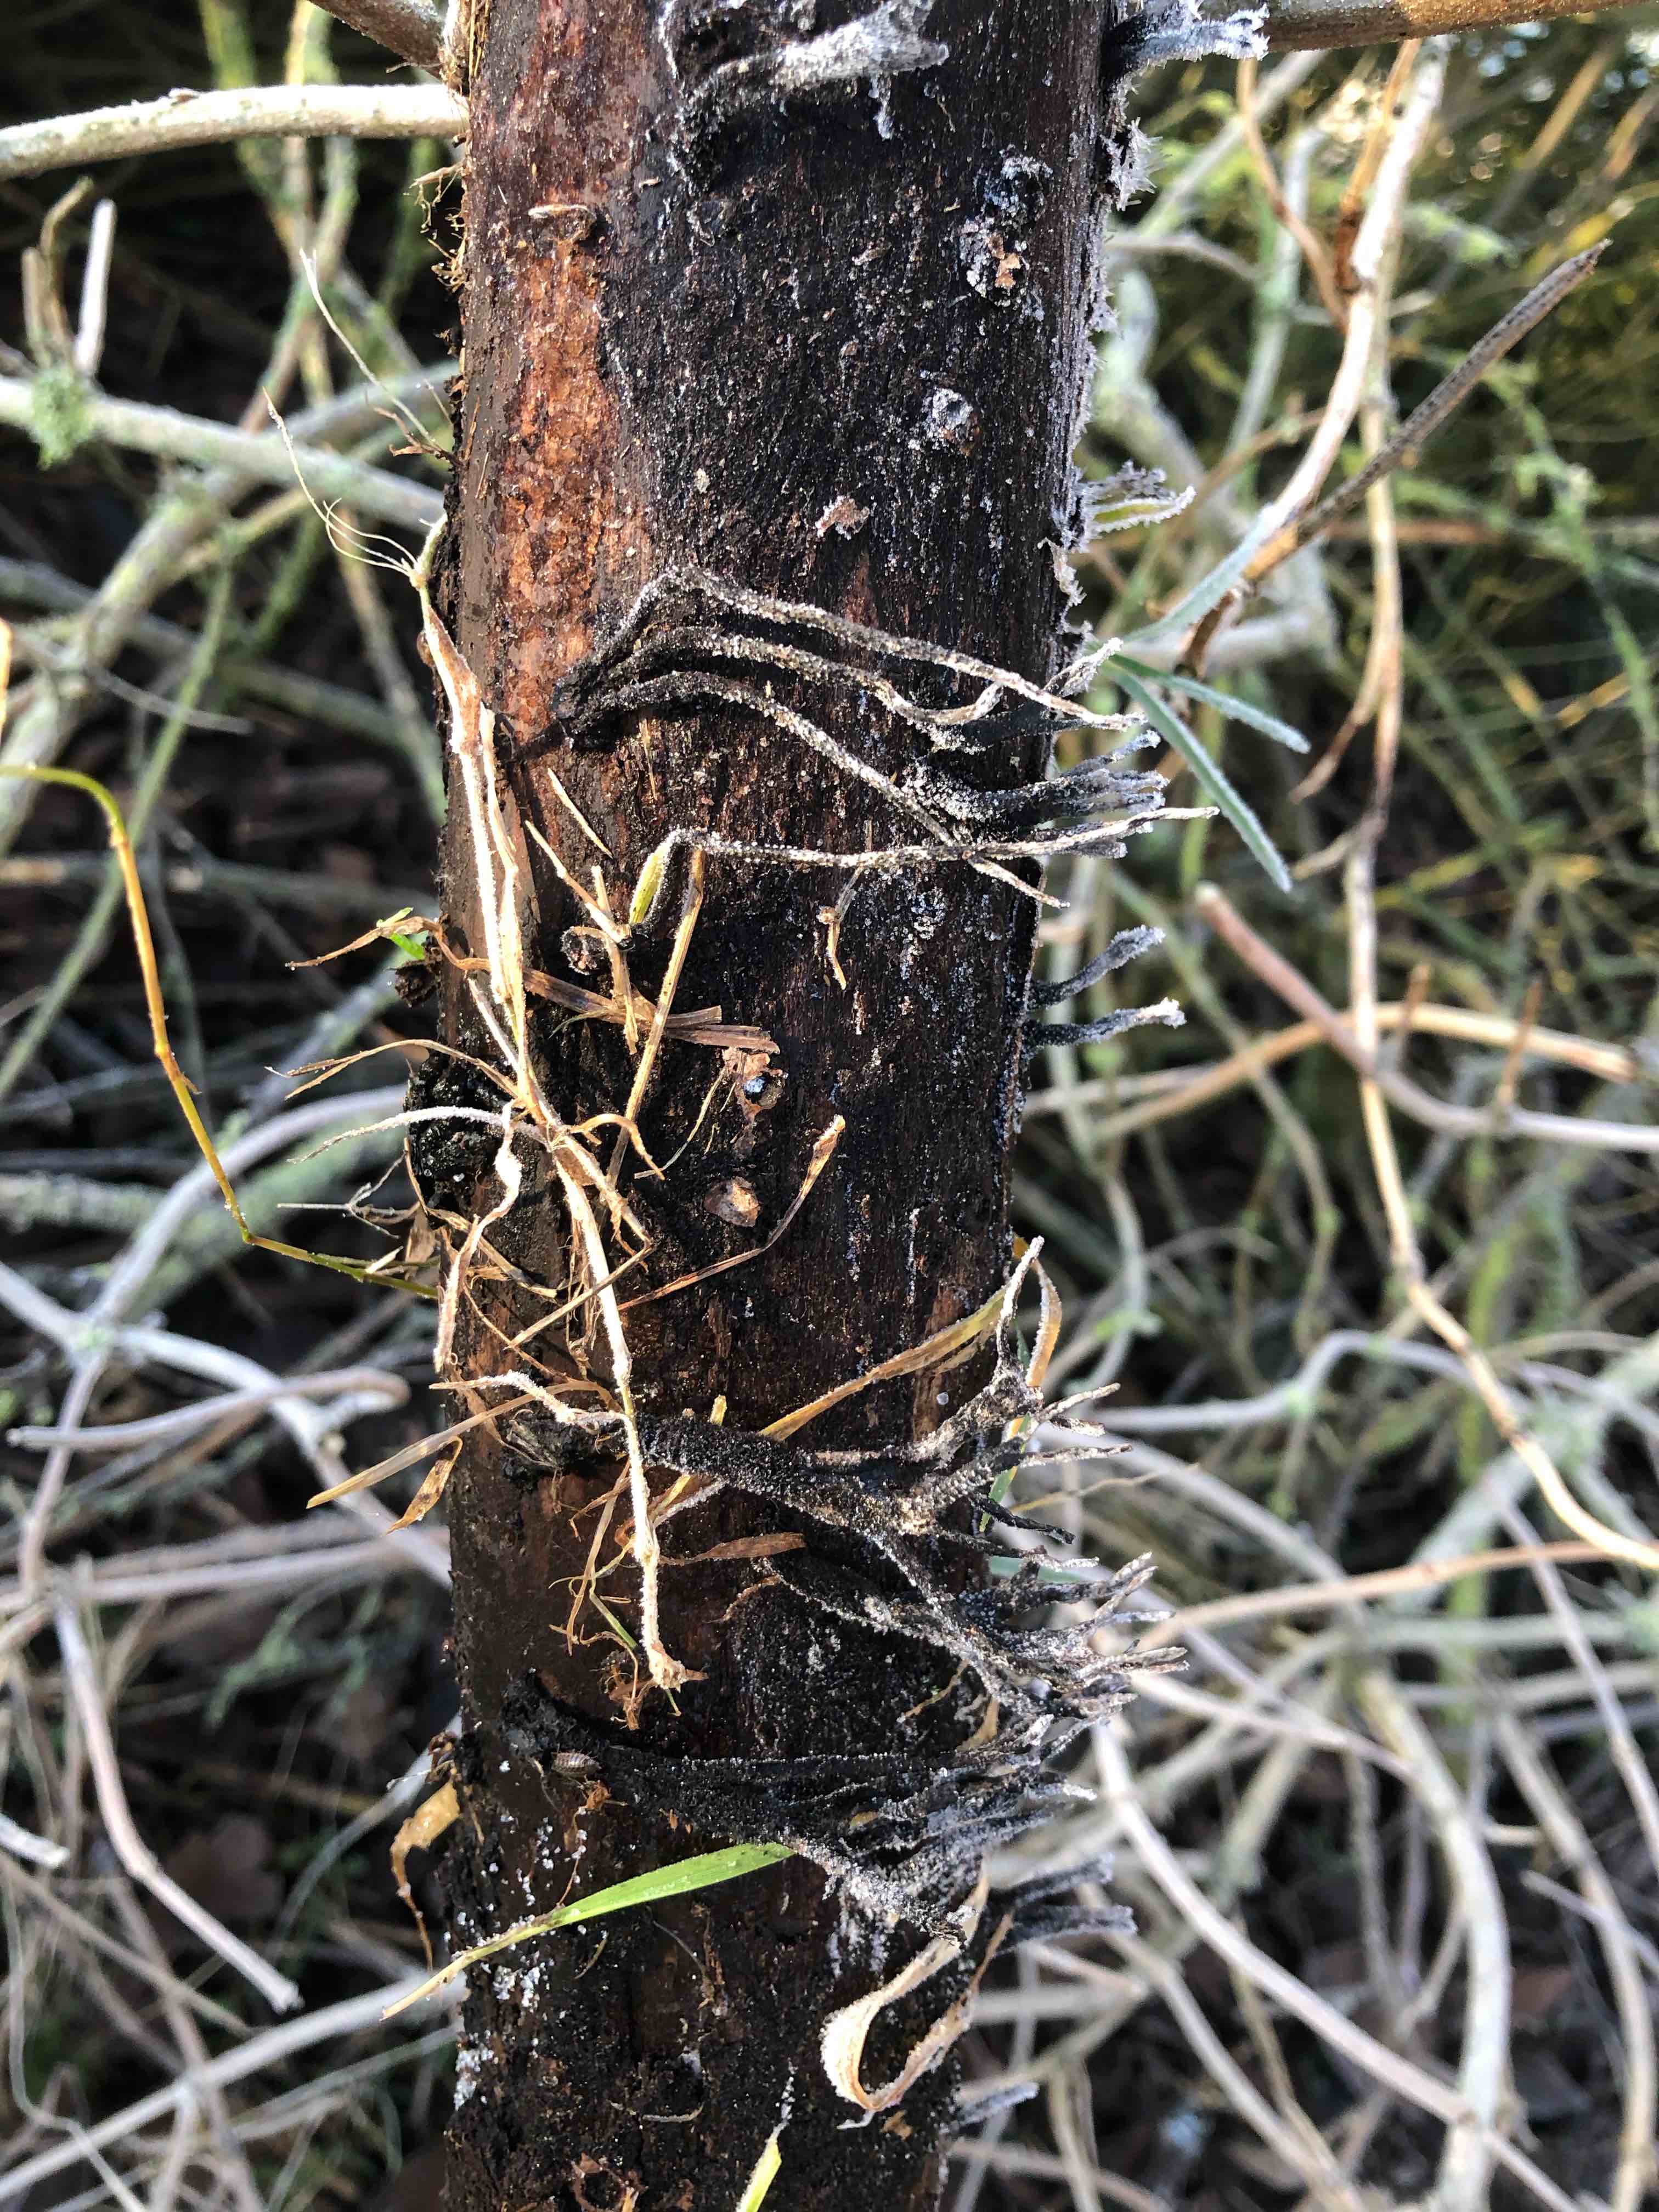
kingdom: Fungi
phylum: Ascomycota
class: Sordariomycetes
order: Xylariales
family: Xylariaceae
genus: Xylaria
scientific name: Xylaria hypoxylon
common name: grenet stødsvamp
